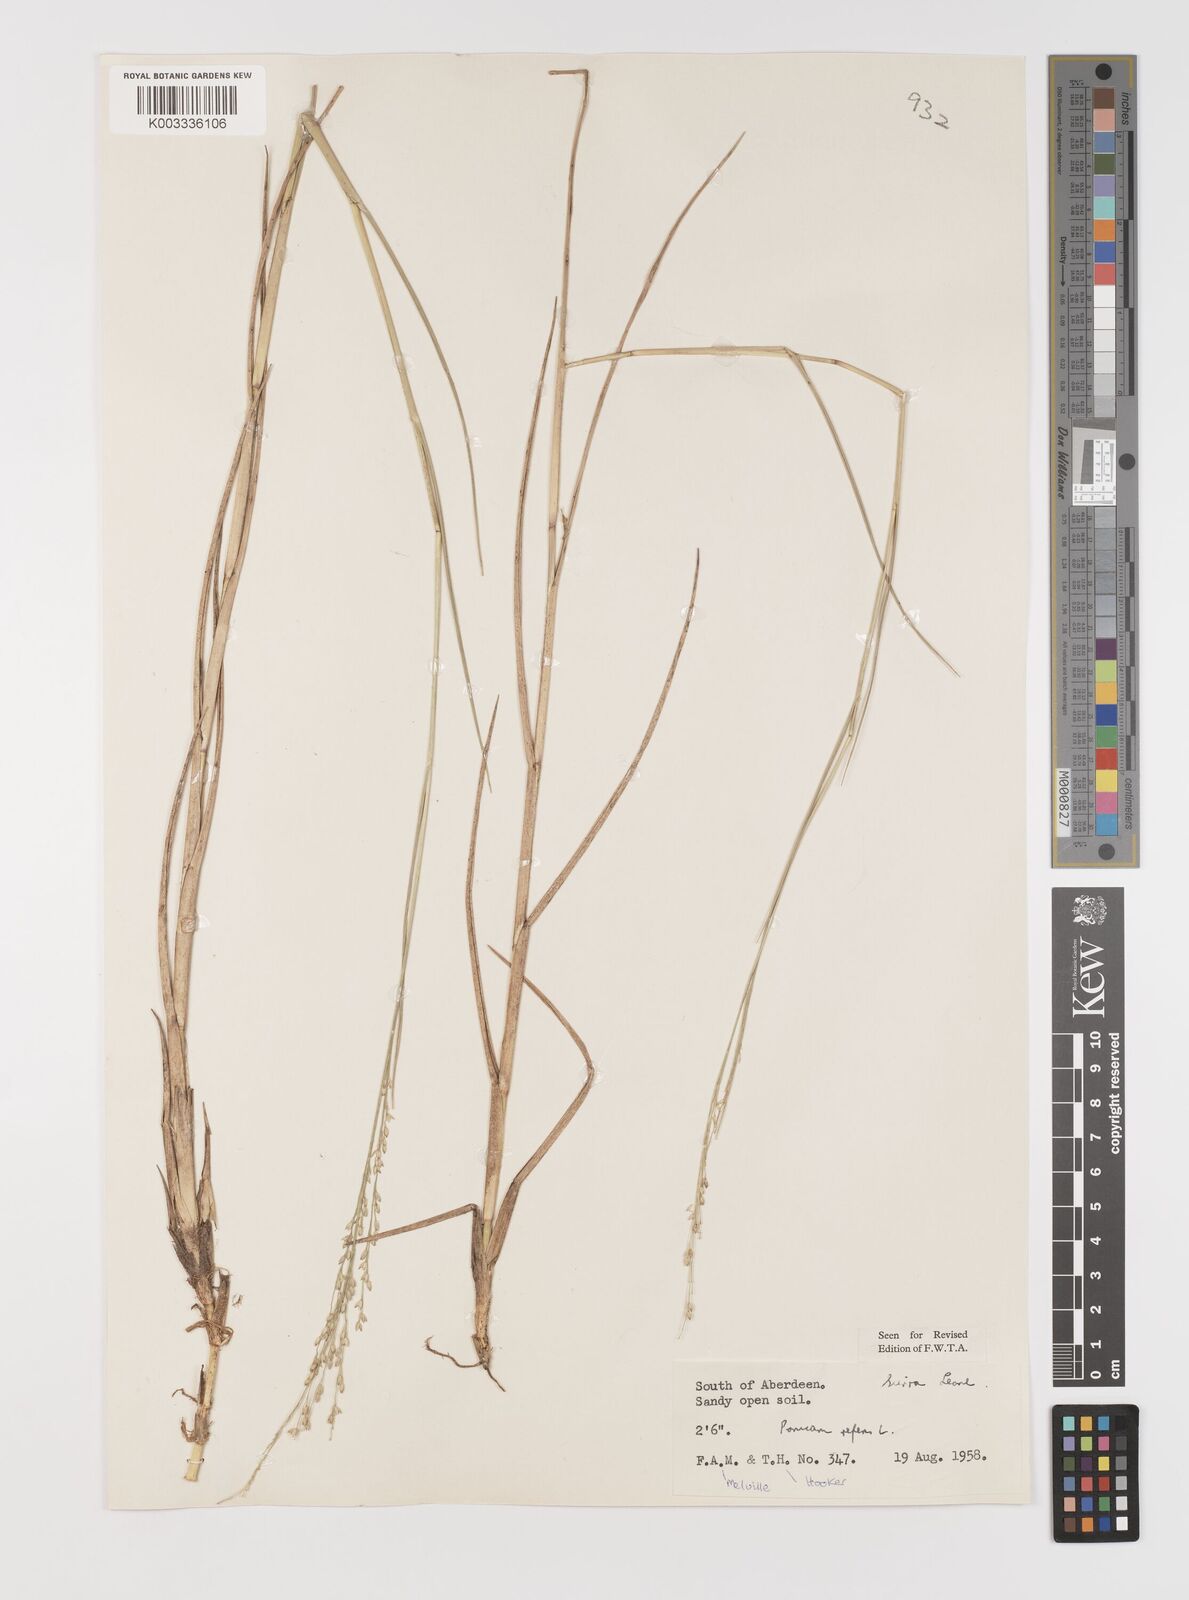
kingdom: Plantae
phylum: Tracheophyta
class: Liliopsida
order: Poales
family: Poaceae
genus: Panicum
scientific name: Panicum repens
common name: Torpedo grass
